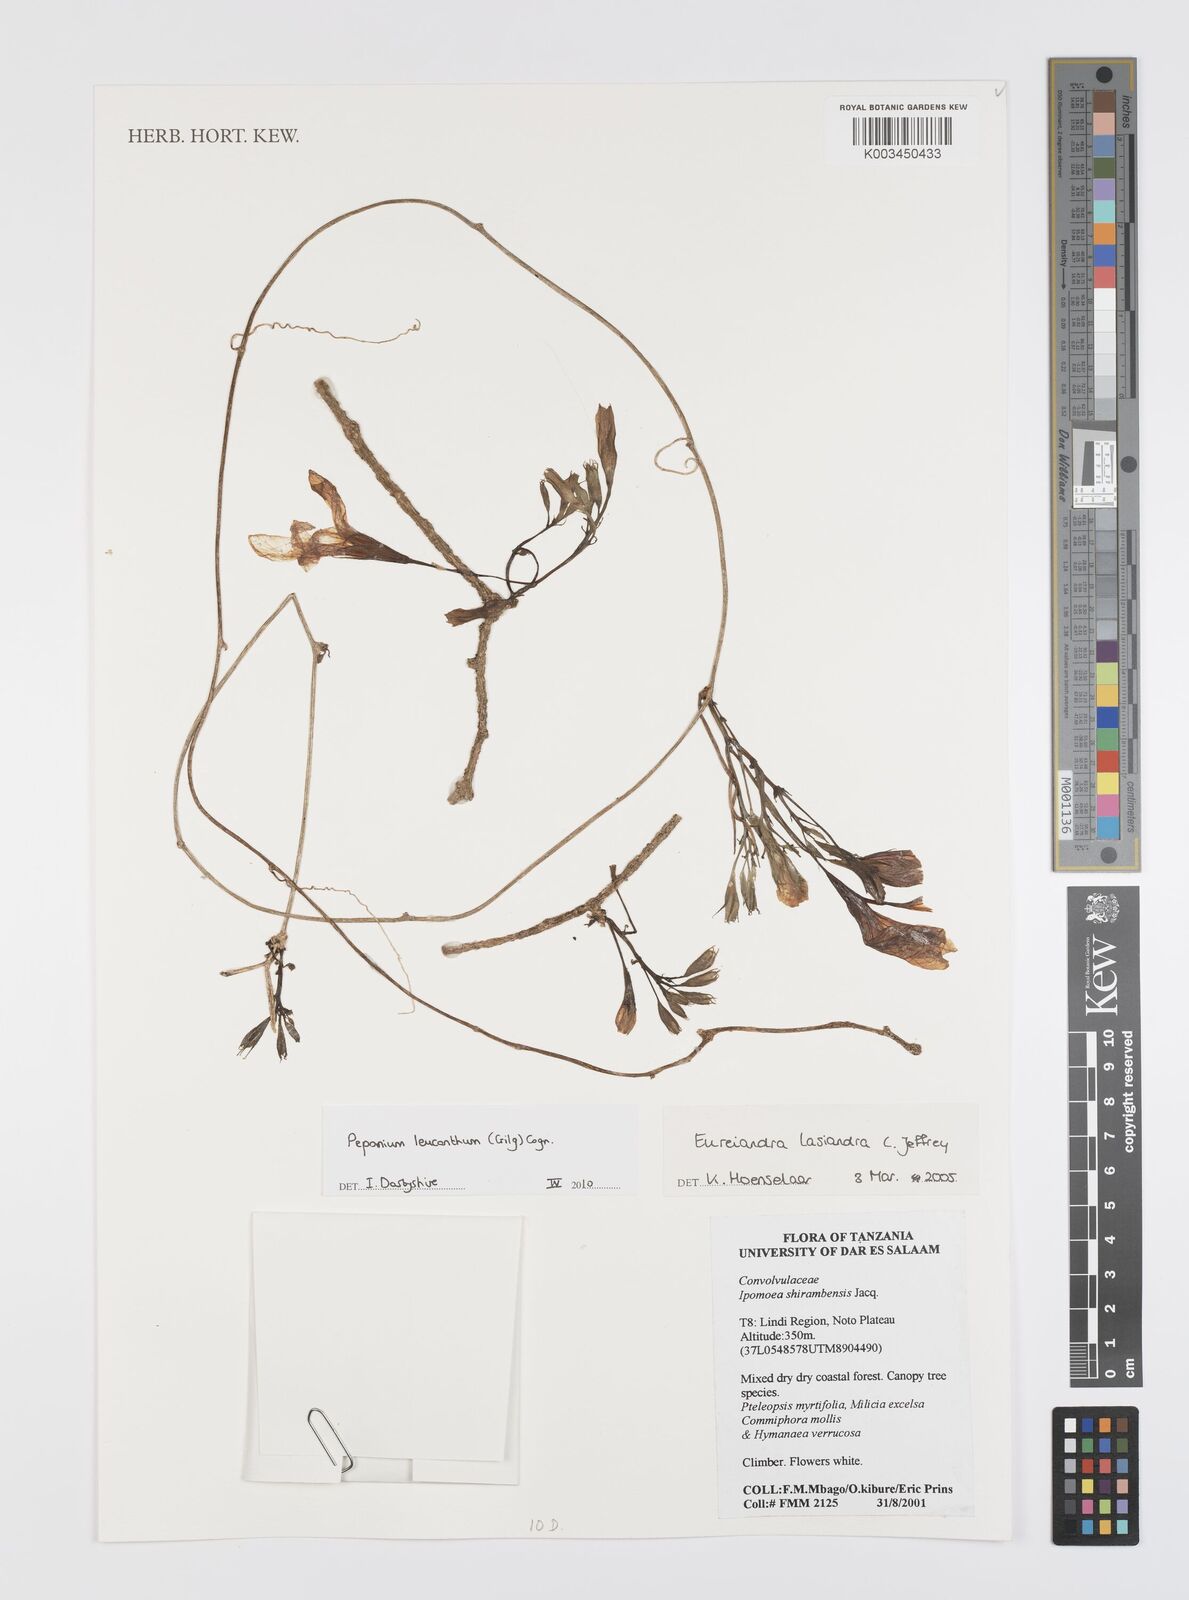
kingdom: Plantae
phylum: Tracheophyta
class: Magnoliopsida
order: Cucurbitales
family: Cucurbitaceae
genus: Peponium
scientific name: Peponium leucanthum
